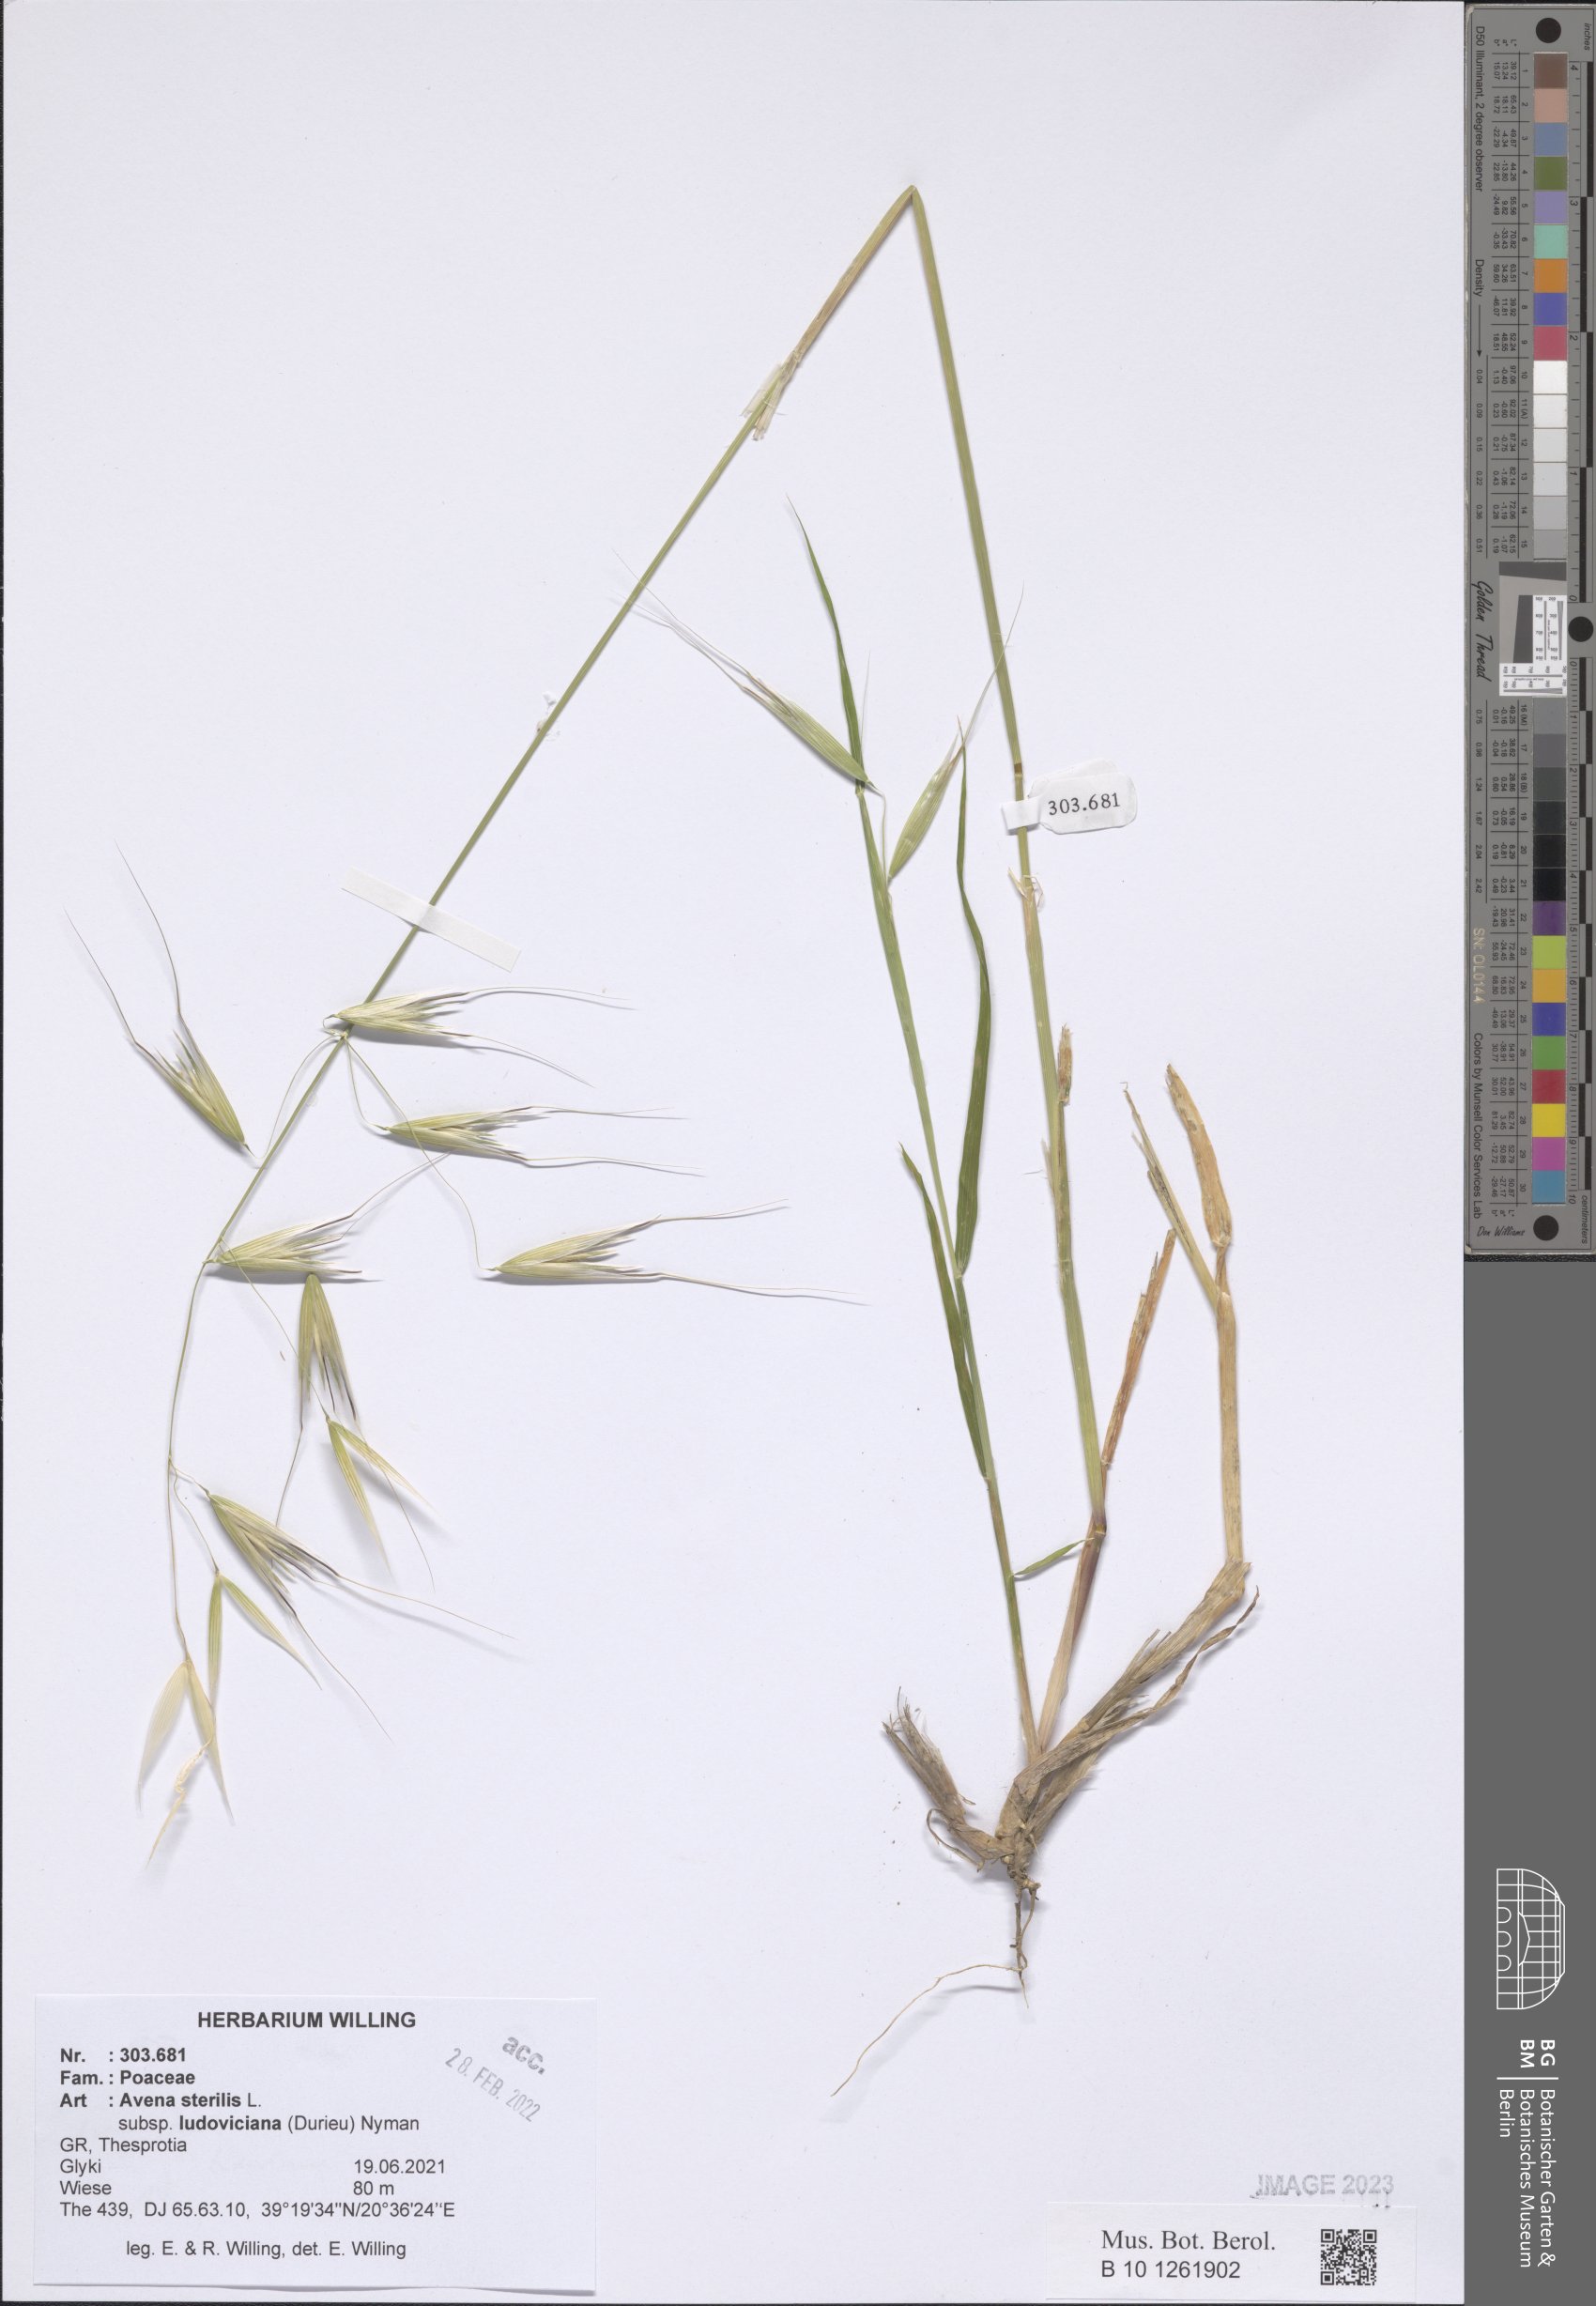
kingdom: Plantae
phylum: Tracheophyta
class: Liliopsida
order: Poales
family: Poaceae
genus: Avena
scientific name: Avena sterilis
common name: Animated oat
